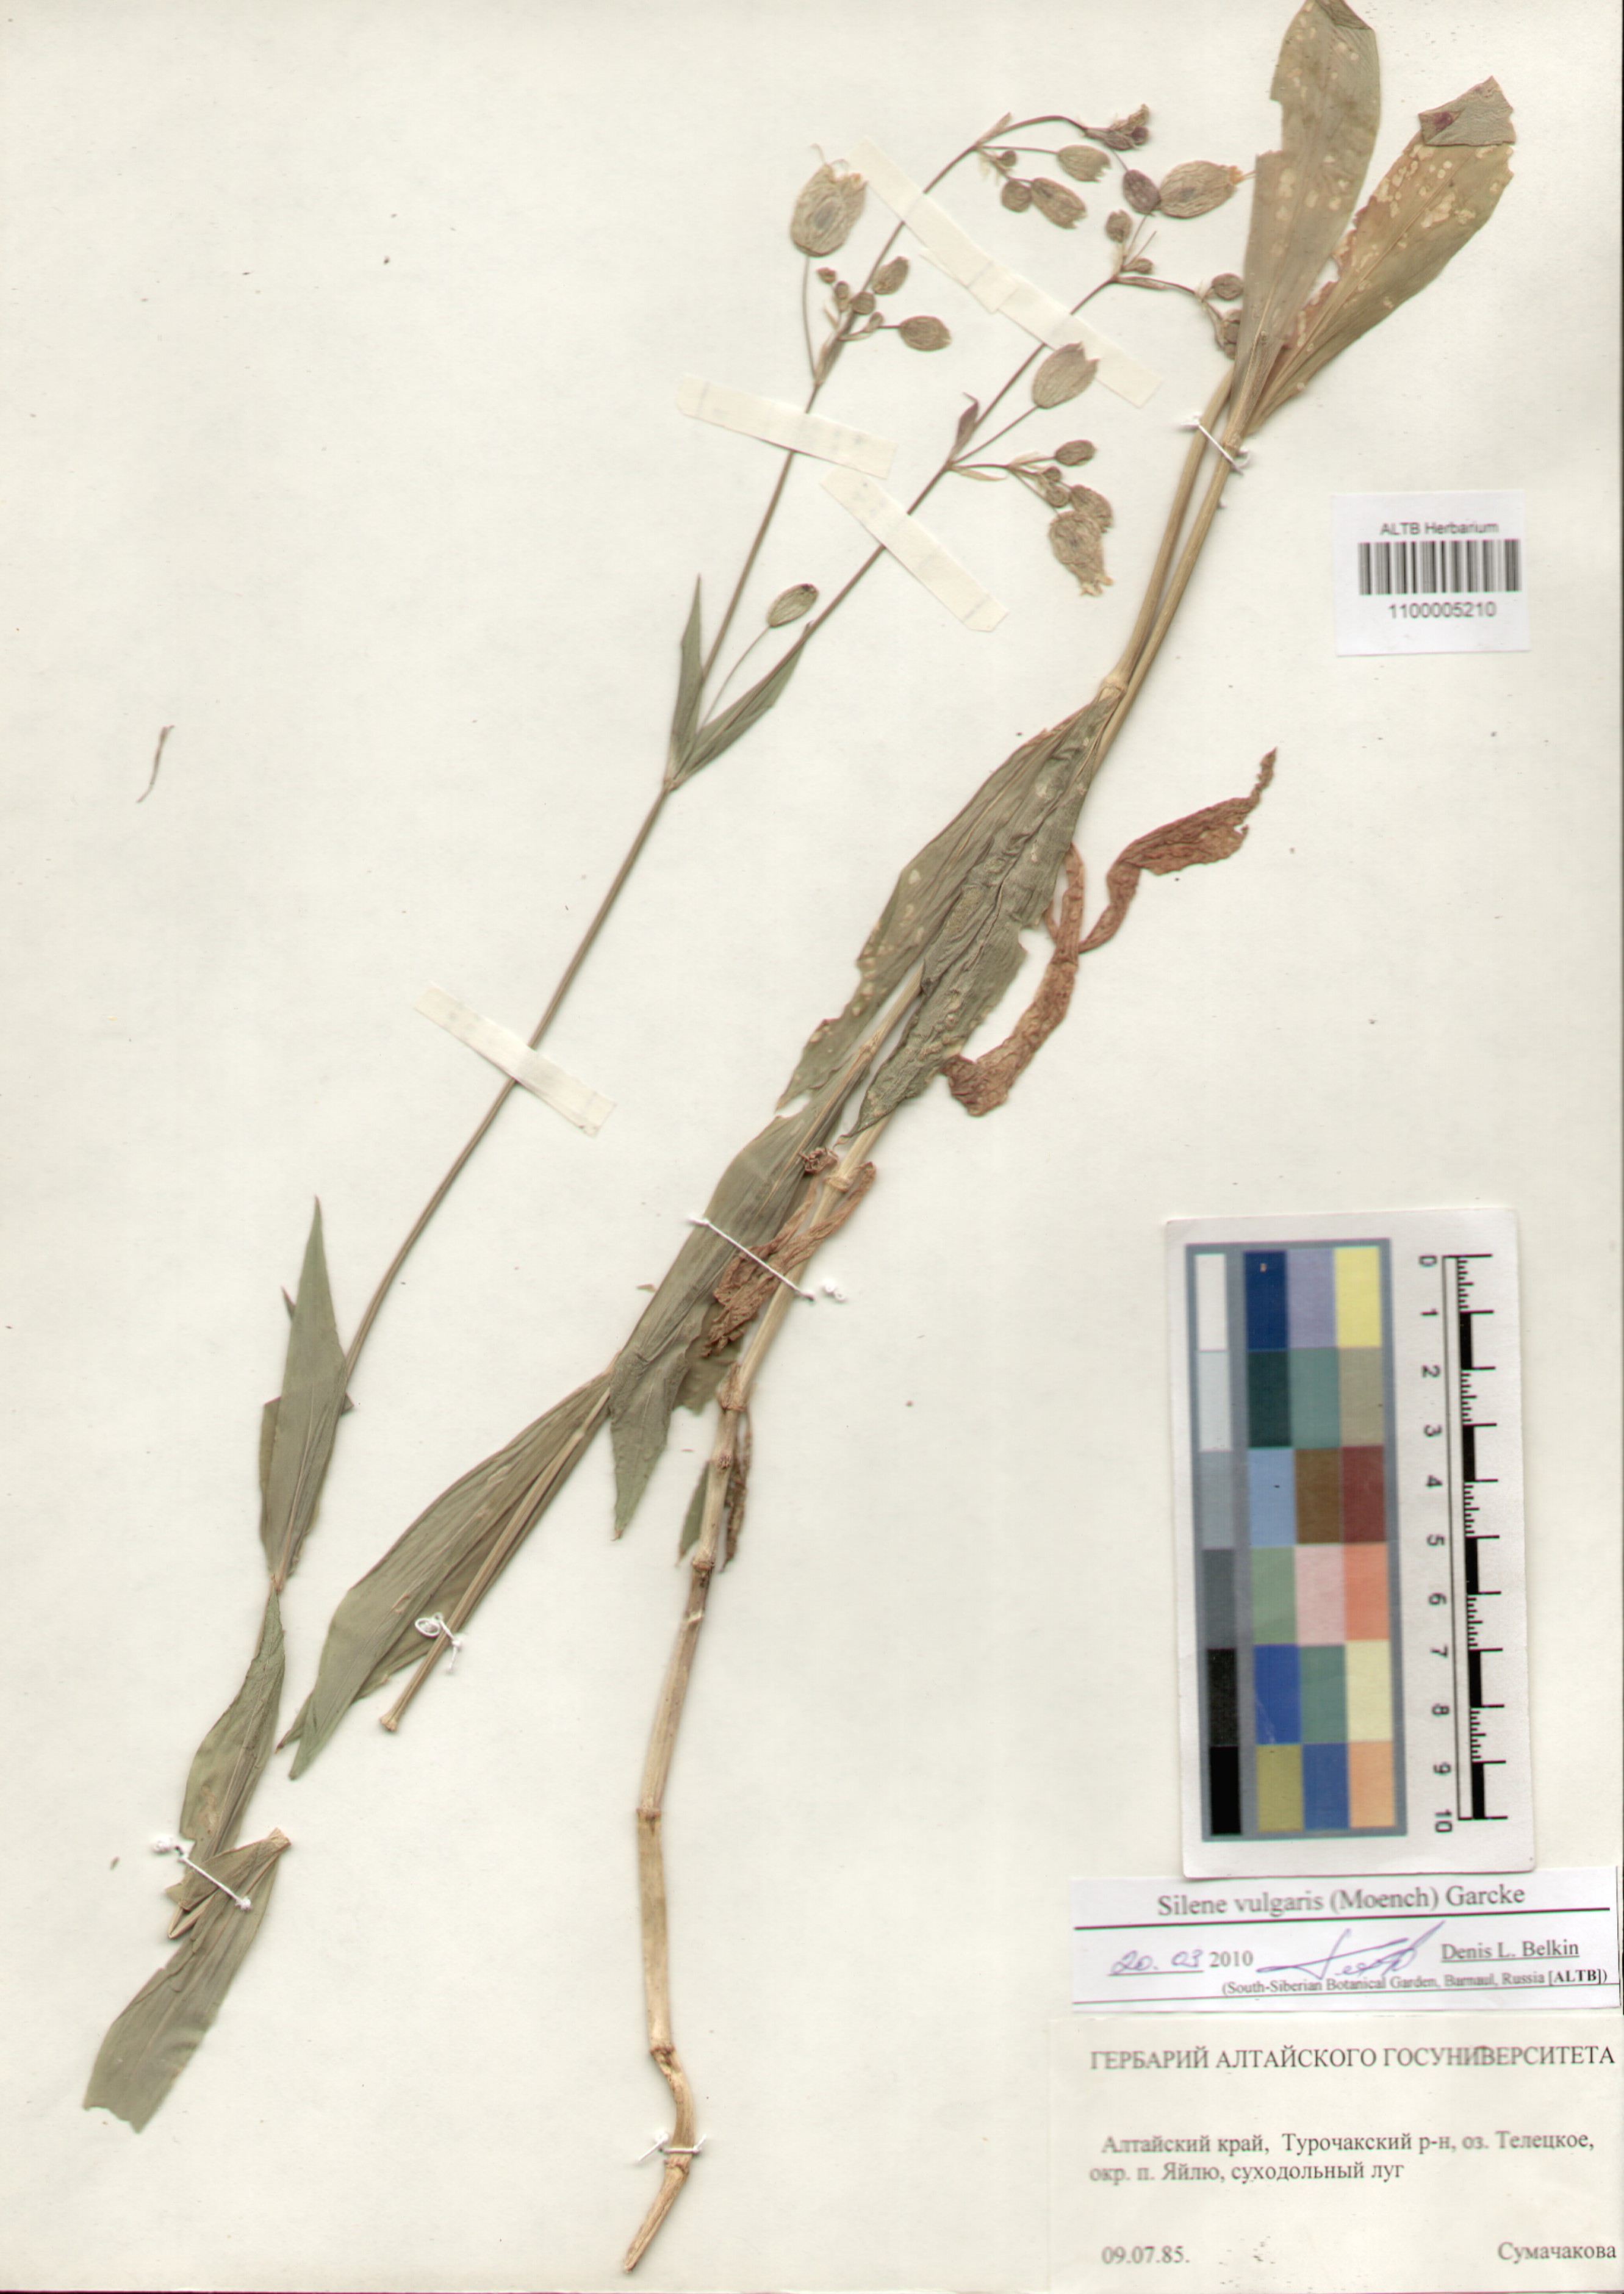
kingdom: Plantae
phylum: Tracheophyta
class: Magnoliopsida
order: Caryophyllales
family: Caryophyllaceae
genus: Silene
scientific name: Silene vulgaris
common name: Bladder campion
